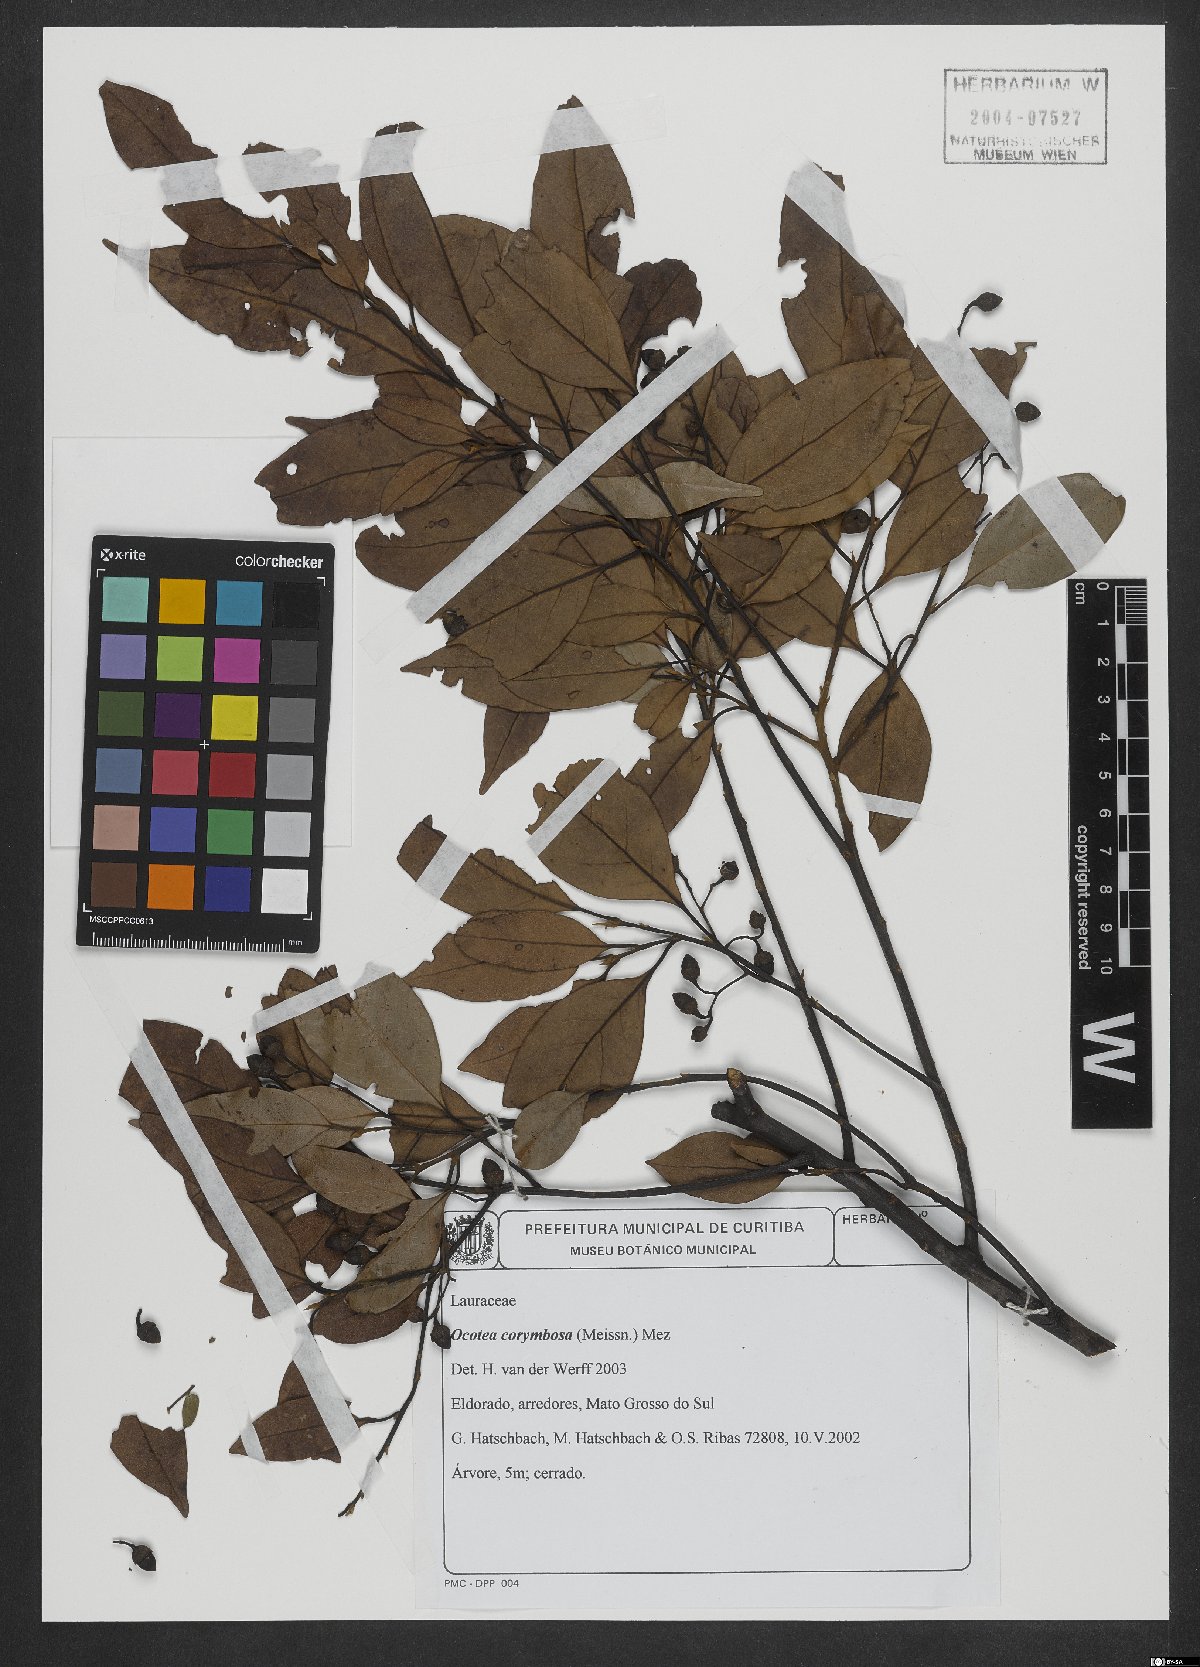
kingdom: Plantae
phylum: Tracheophyta
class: Magnoliopsida
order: Laurales
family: Lauraceae
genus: Mespilodaphne
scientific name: Mespilodaphne corymbosa
